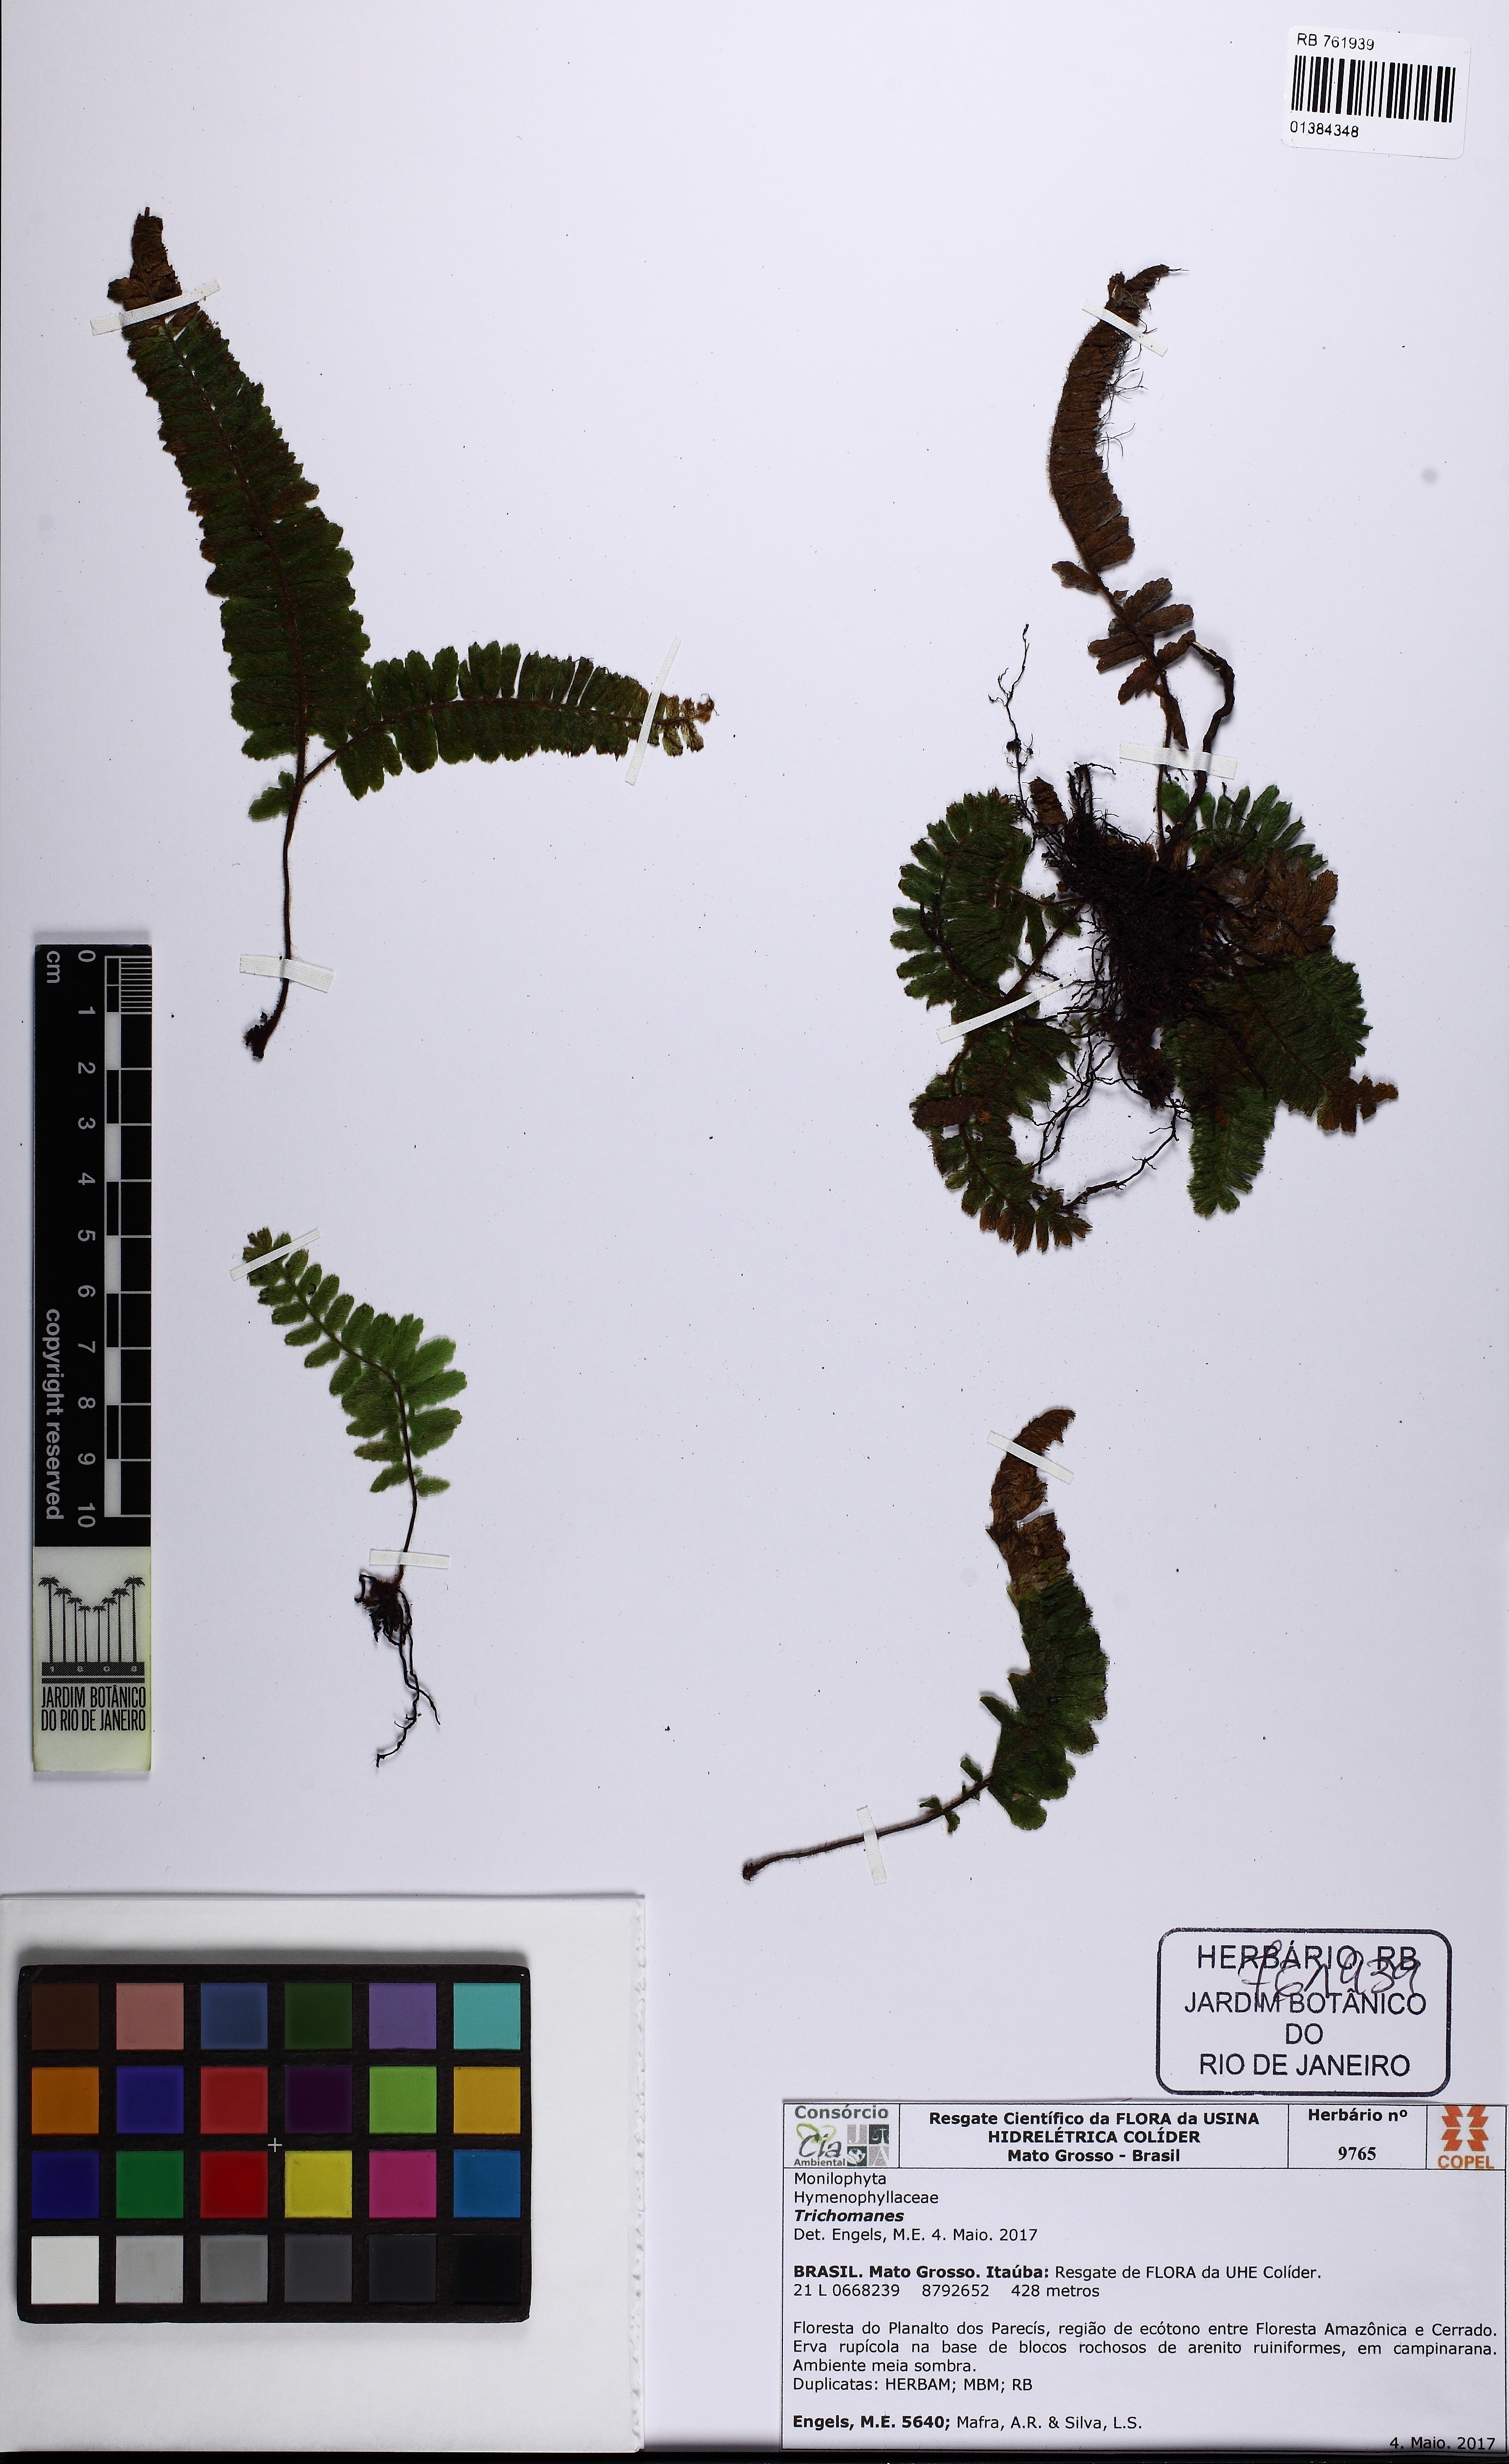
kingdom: Plantae
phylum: Tracheophyta
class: Polypodiopsida
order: Hymenophyllales
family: Hymenophyllaceae
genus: Trichomanes
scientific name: Trichomanes
